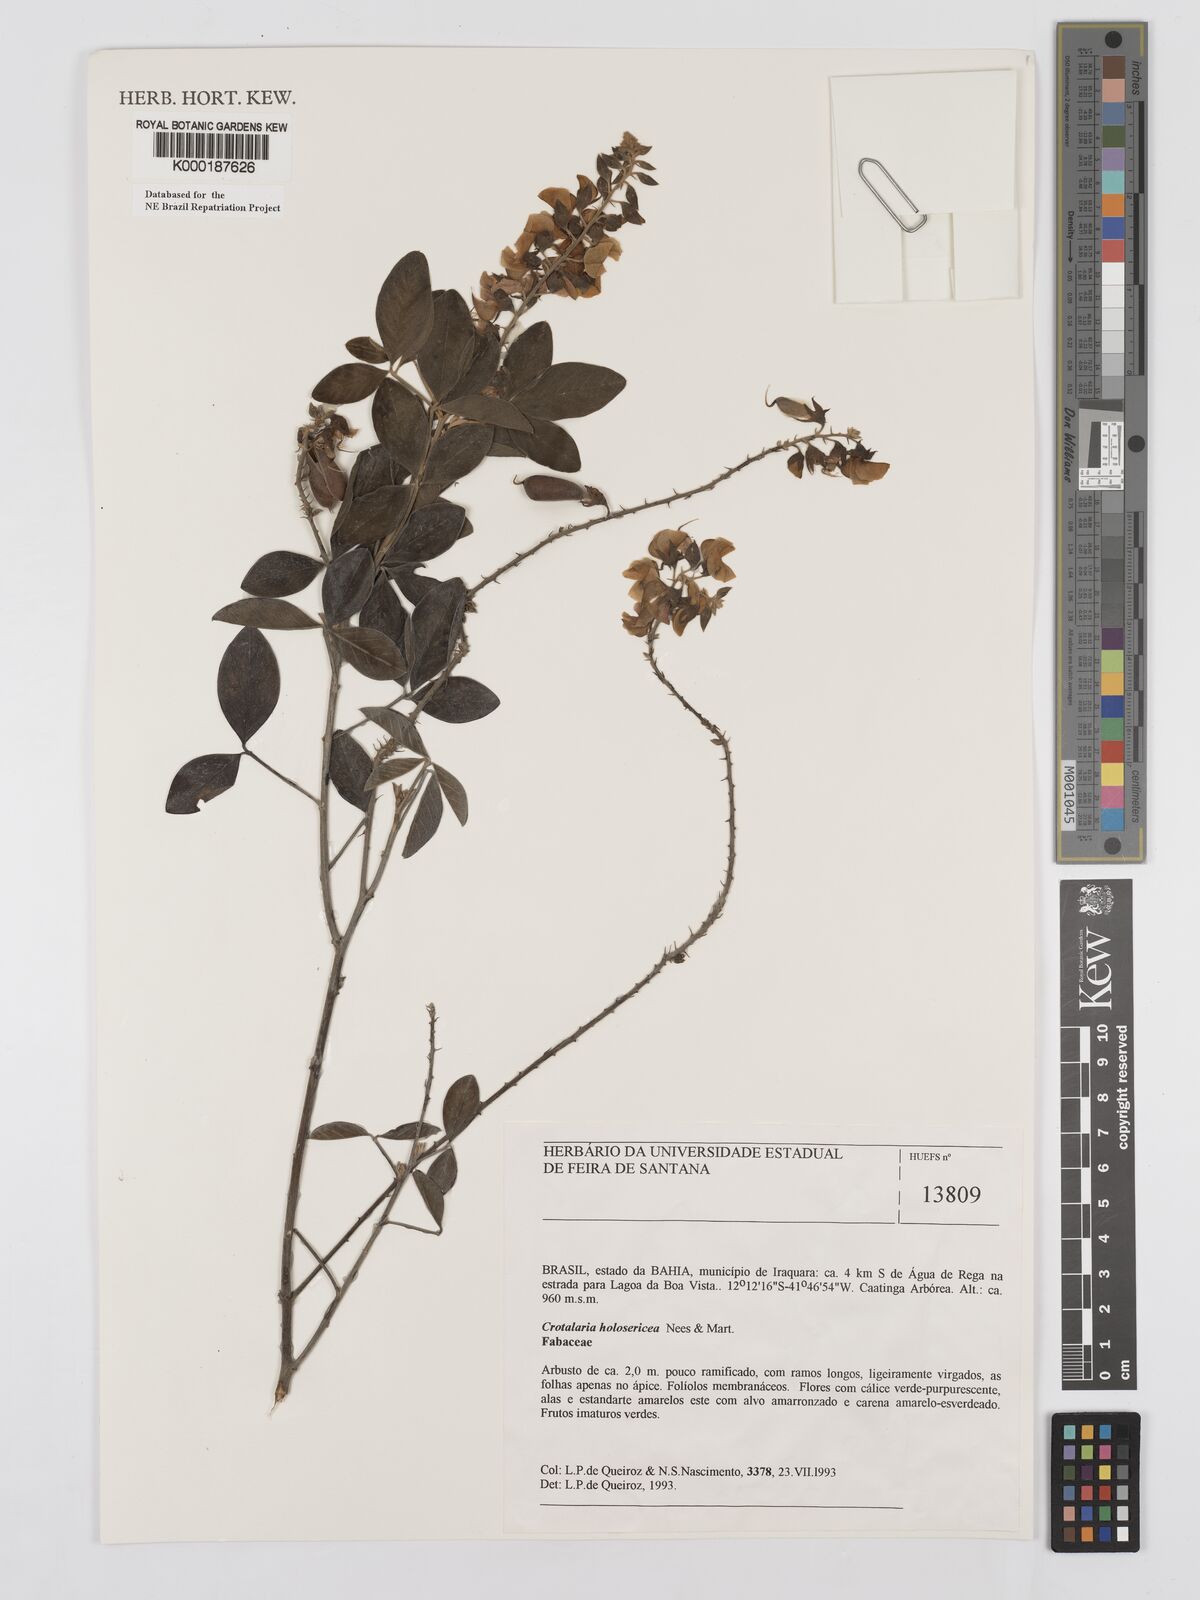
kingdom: Plantae
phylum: Tracheophyta
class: Magnoliopsida
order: Fabales
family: Fabaceae
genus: Crotalaria
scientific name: Crotalaria holosericea
